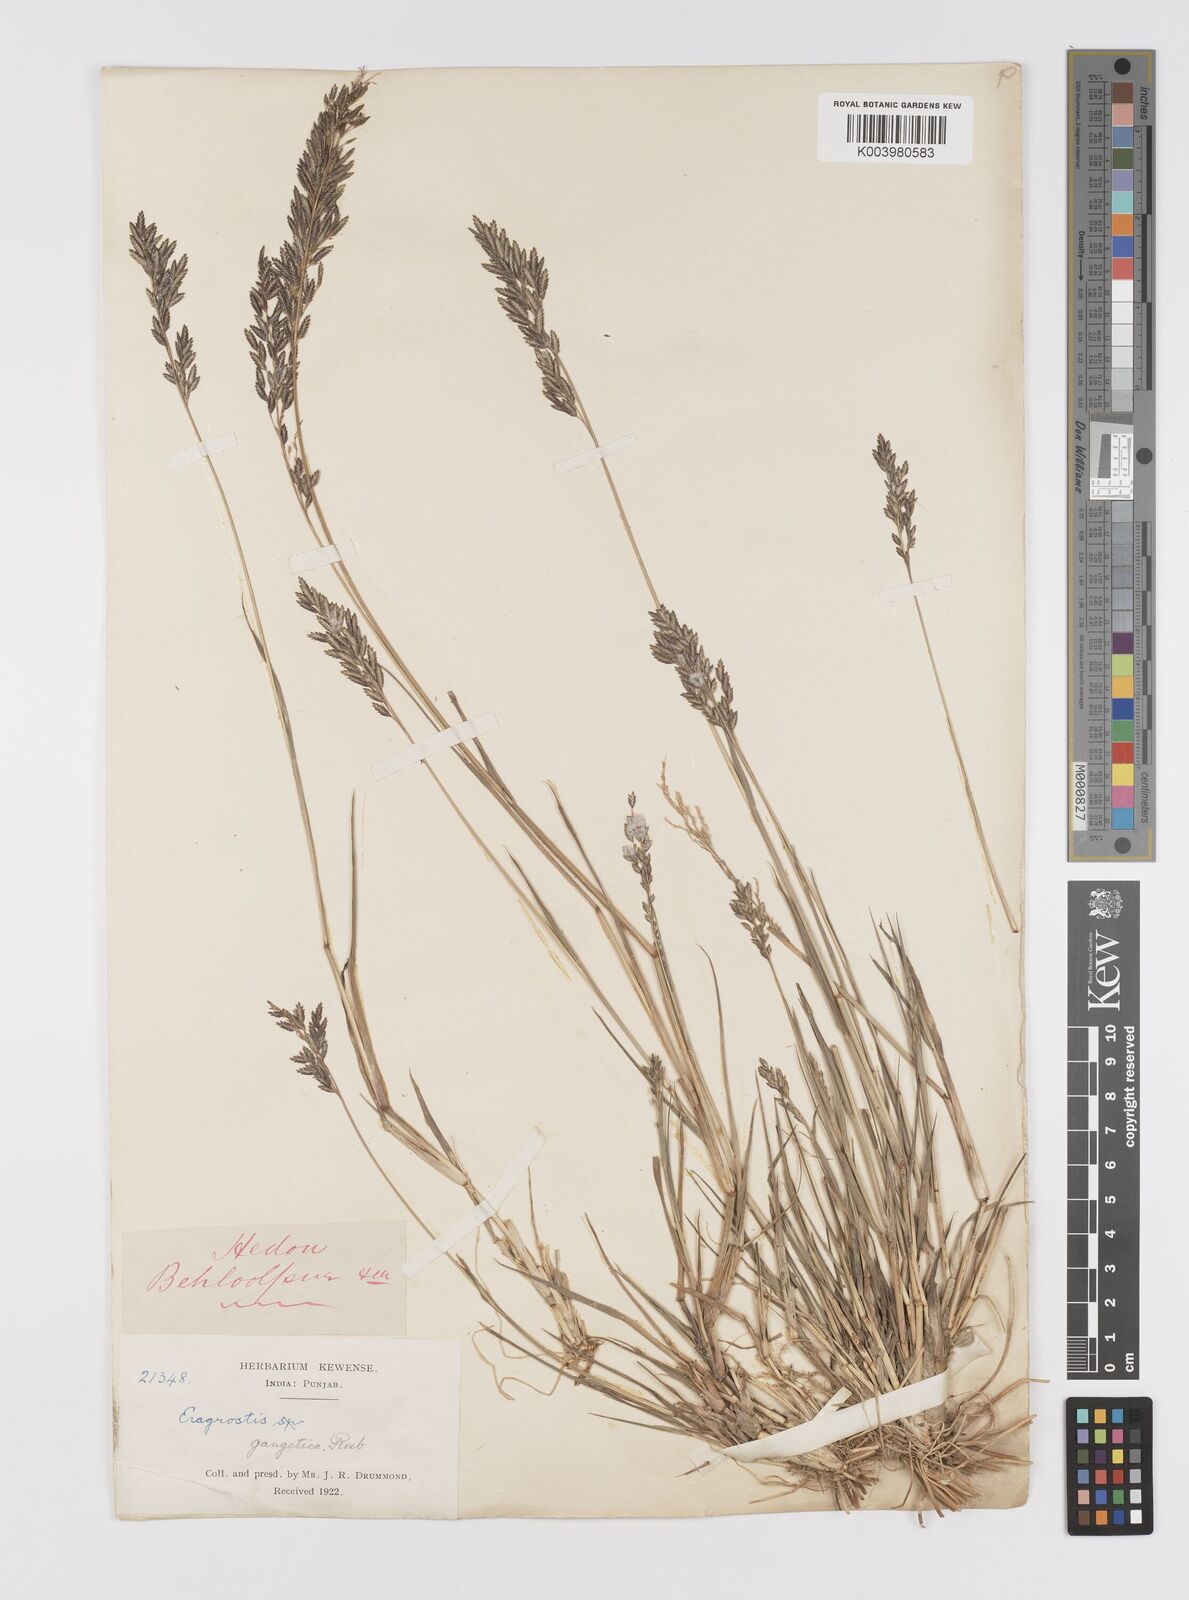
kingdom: Plantae
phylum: Tracheophyta
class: Liliopsida
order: Poales
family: Poaceae
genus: Eragrostis
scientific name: Eragrostis atrovirens
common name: Thalia lovegrass
